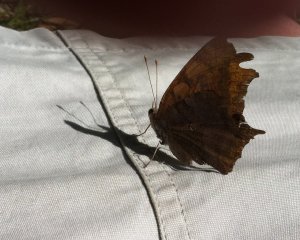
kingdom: Animalia
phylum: Arthropoda
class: Insecta
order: Lepidoptera
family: Nymphalidae
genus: Polygonia
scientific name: Polygonia interrogationis
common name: Question Mark
